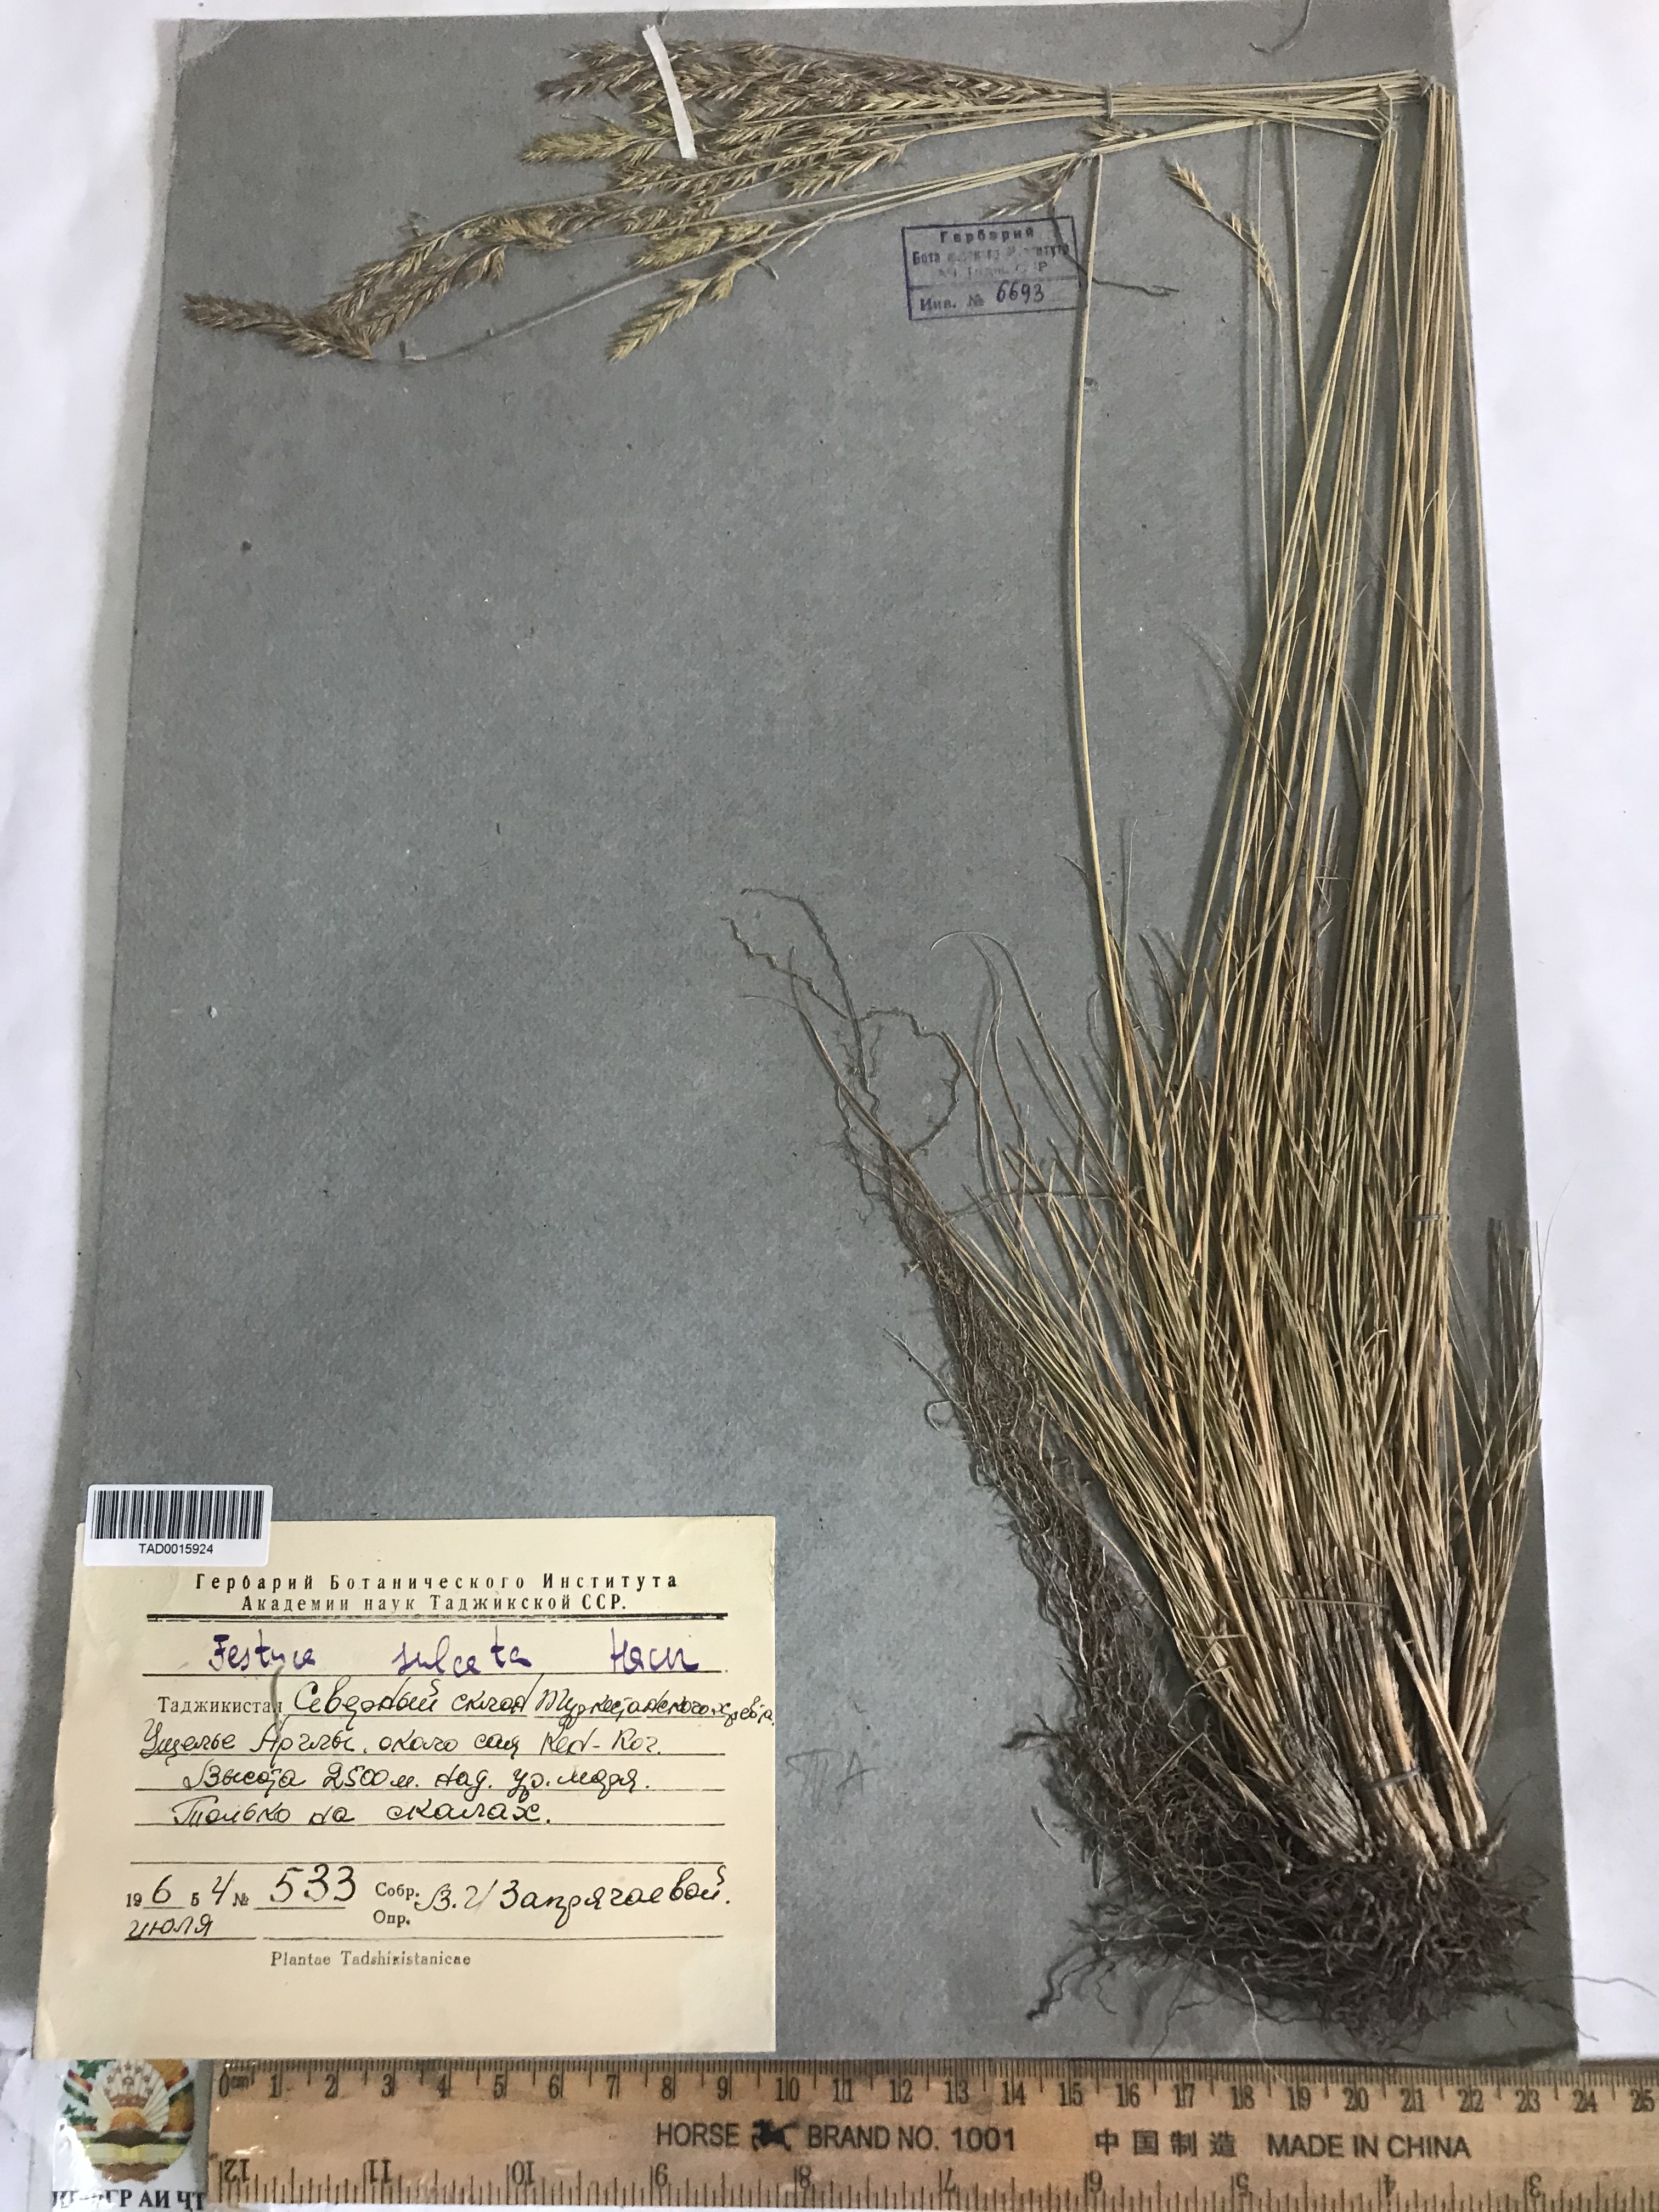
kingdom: Plantae
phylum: Tracheophyta
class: Liliopsida
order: Poales
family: Poaceae
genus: Festuca
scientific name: Festuca sulcata
